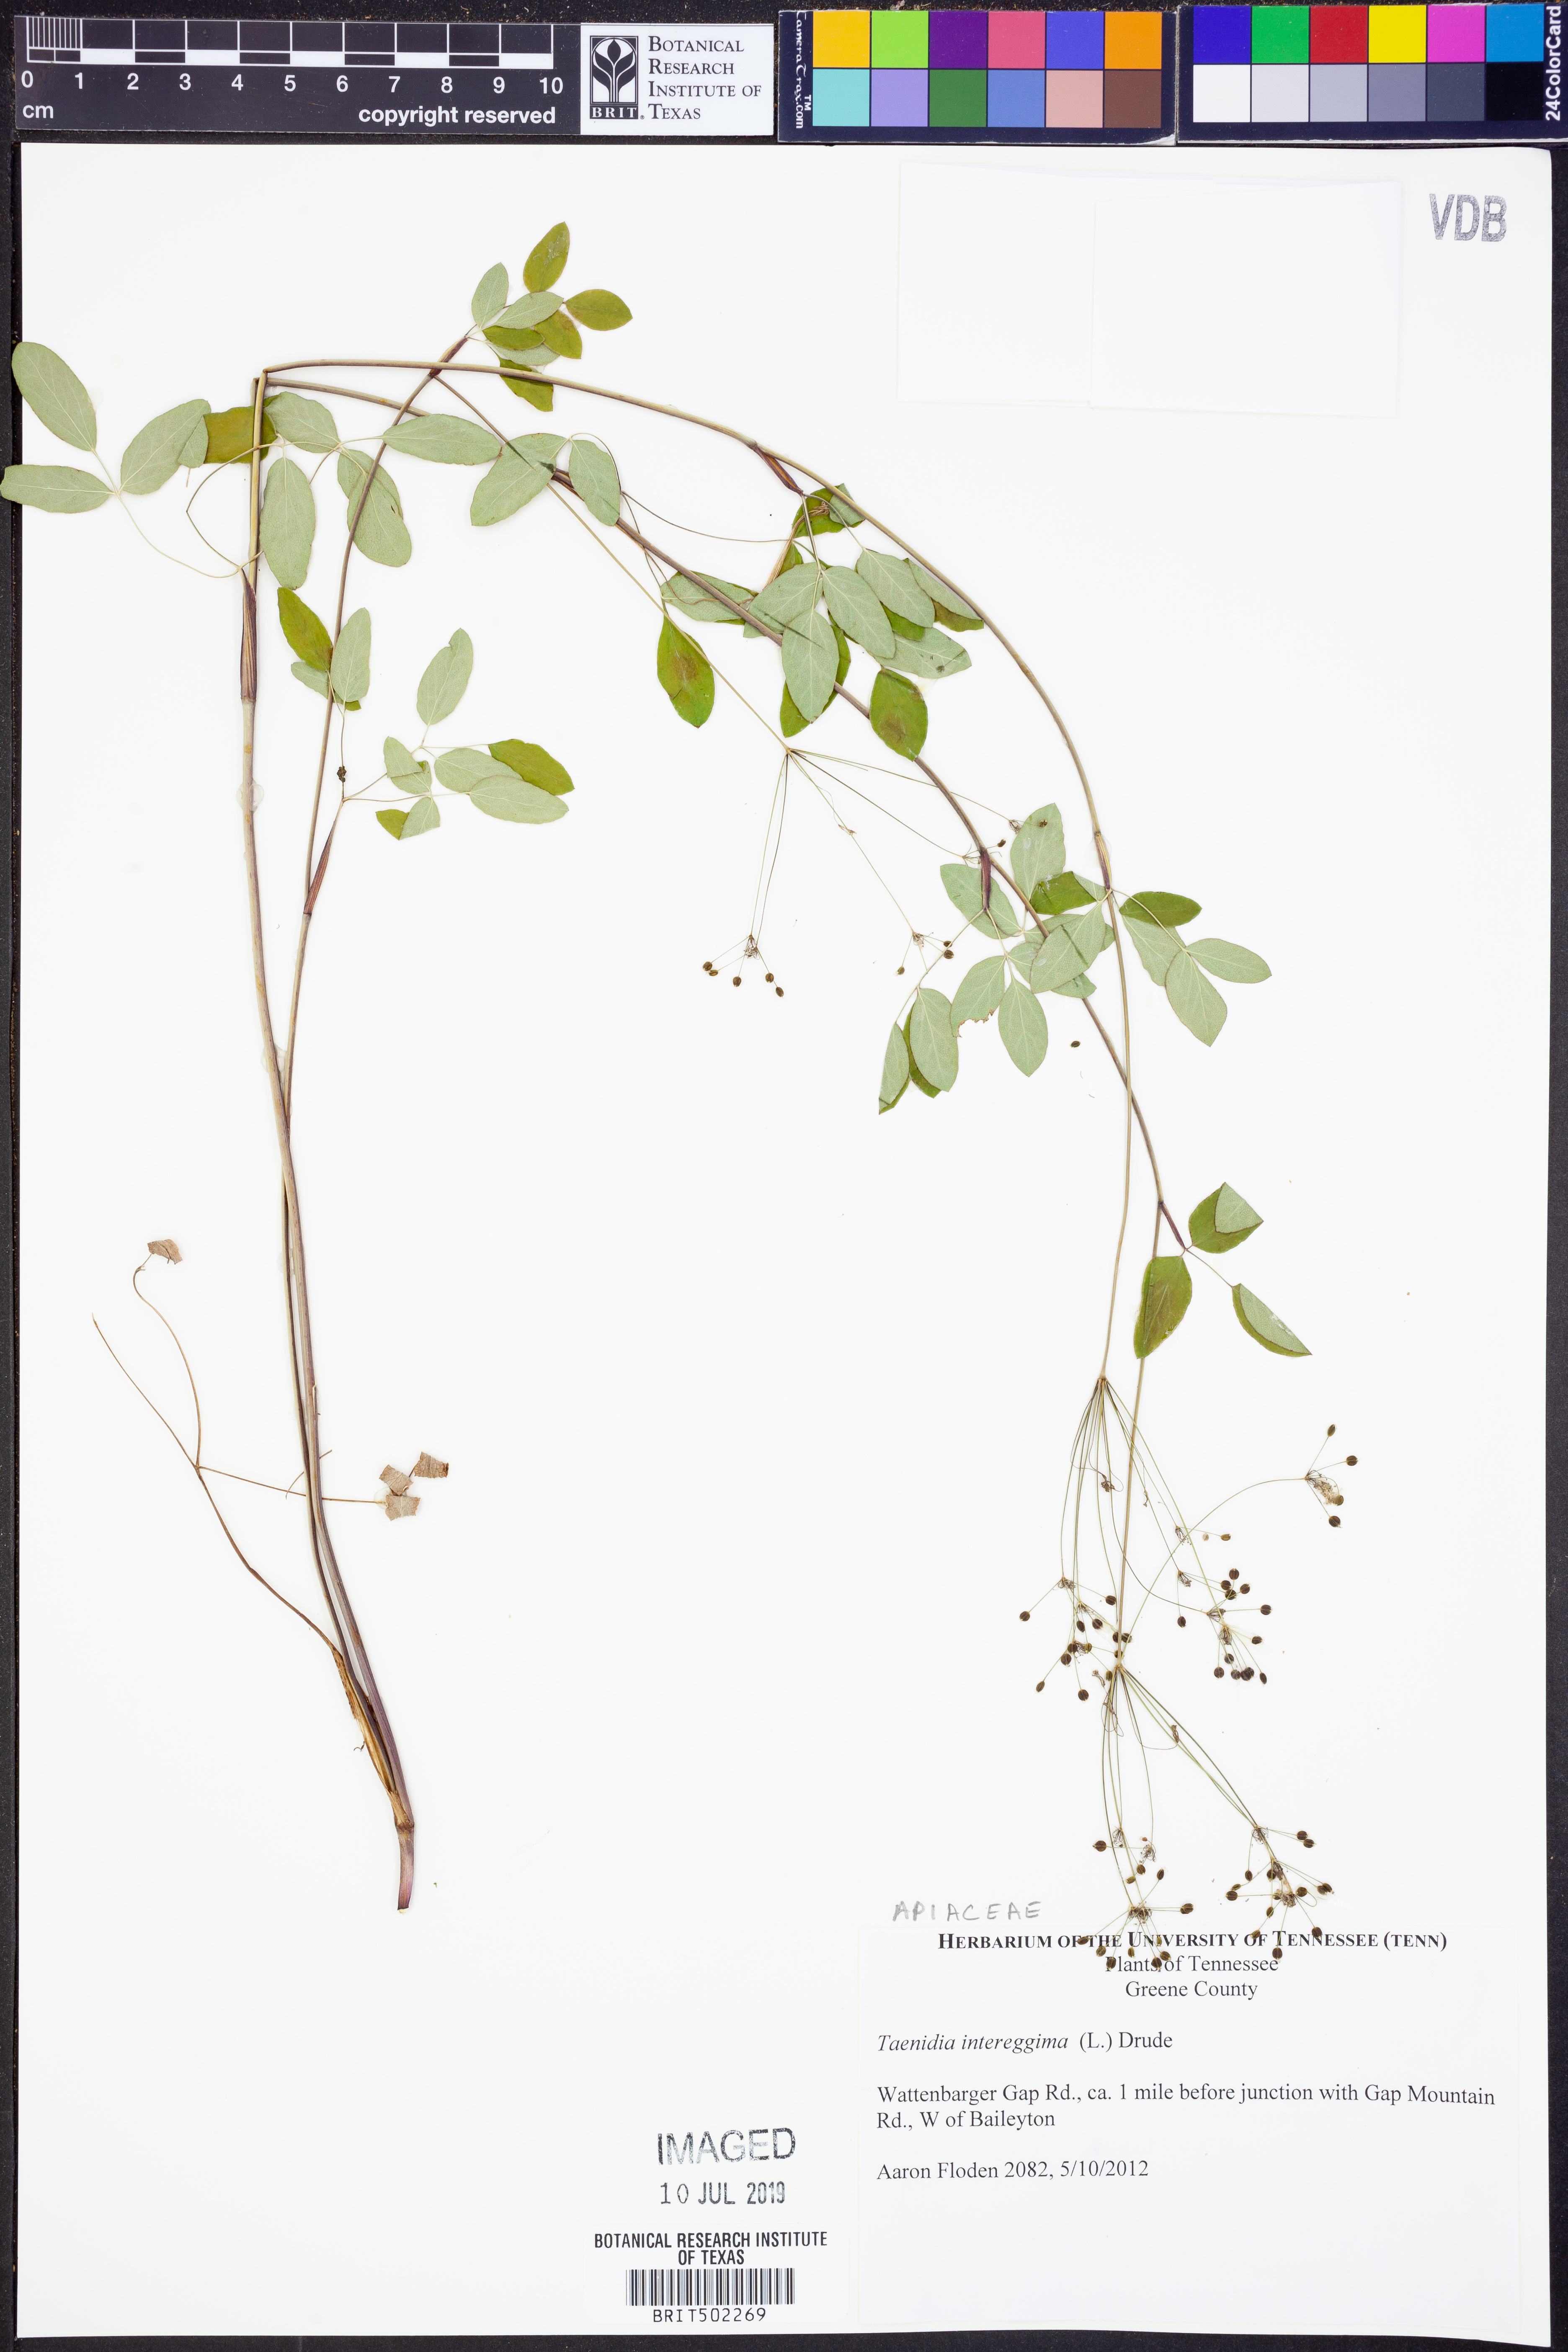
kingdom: Plantae
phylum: Tracheophyta
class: Magnoliopsida
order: Apiales
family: Apiaceae
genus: Taenidia
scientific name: Taenidia integerrima
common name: Golden alexander
